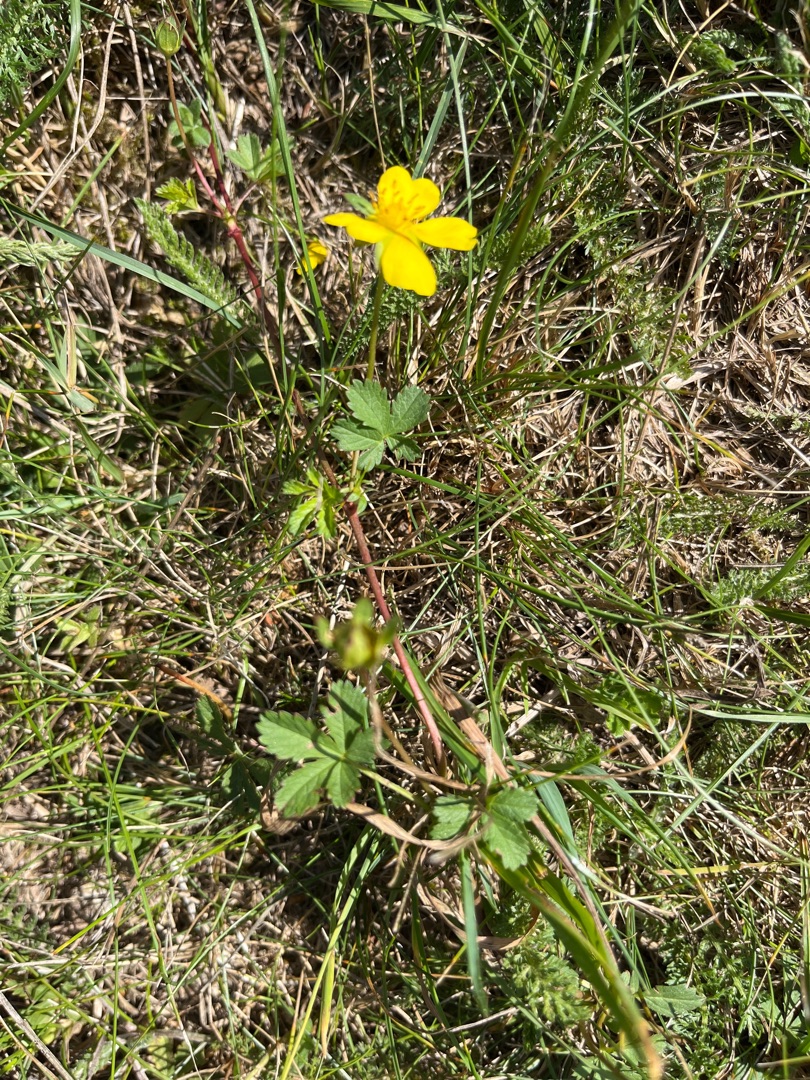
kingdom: Plantae
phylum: Tracheophyta
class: Magnoliopsida
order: Rosales
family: Rosaceae
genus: Potentilla
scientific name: Potentilla reptans
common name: Krybende potentil
